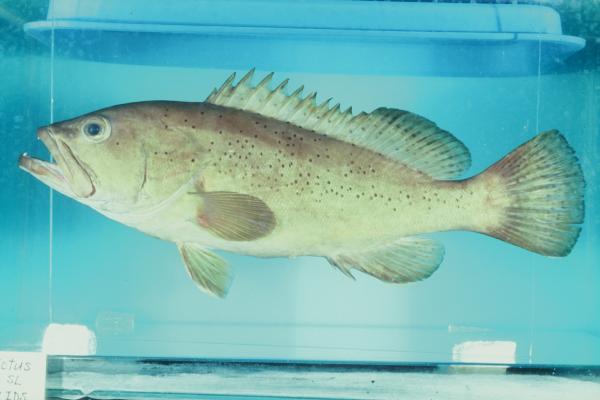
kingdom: Animalia
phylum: Chordata
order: Perciformes
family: Serranidae
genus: Epinephelus
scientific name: Epinephelus epistictus
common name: Dotted grouper
